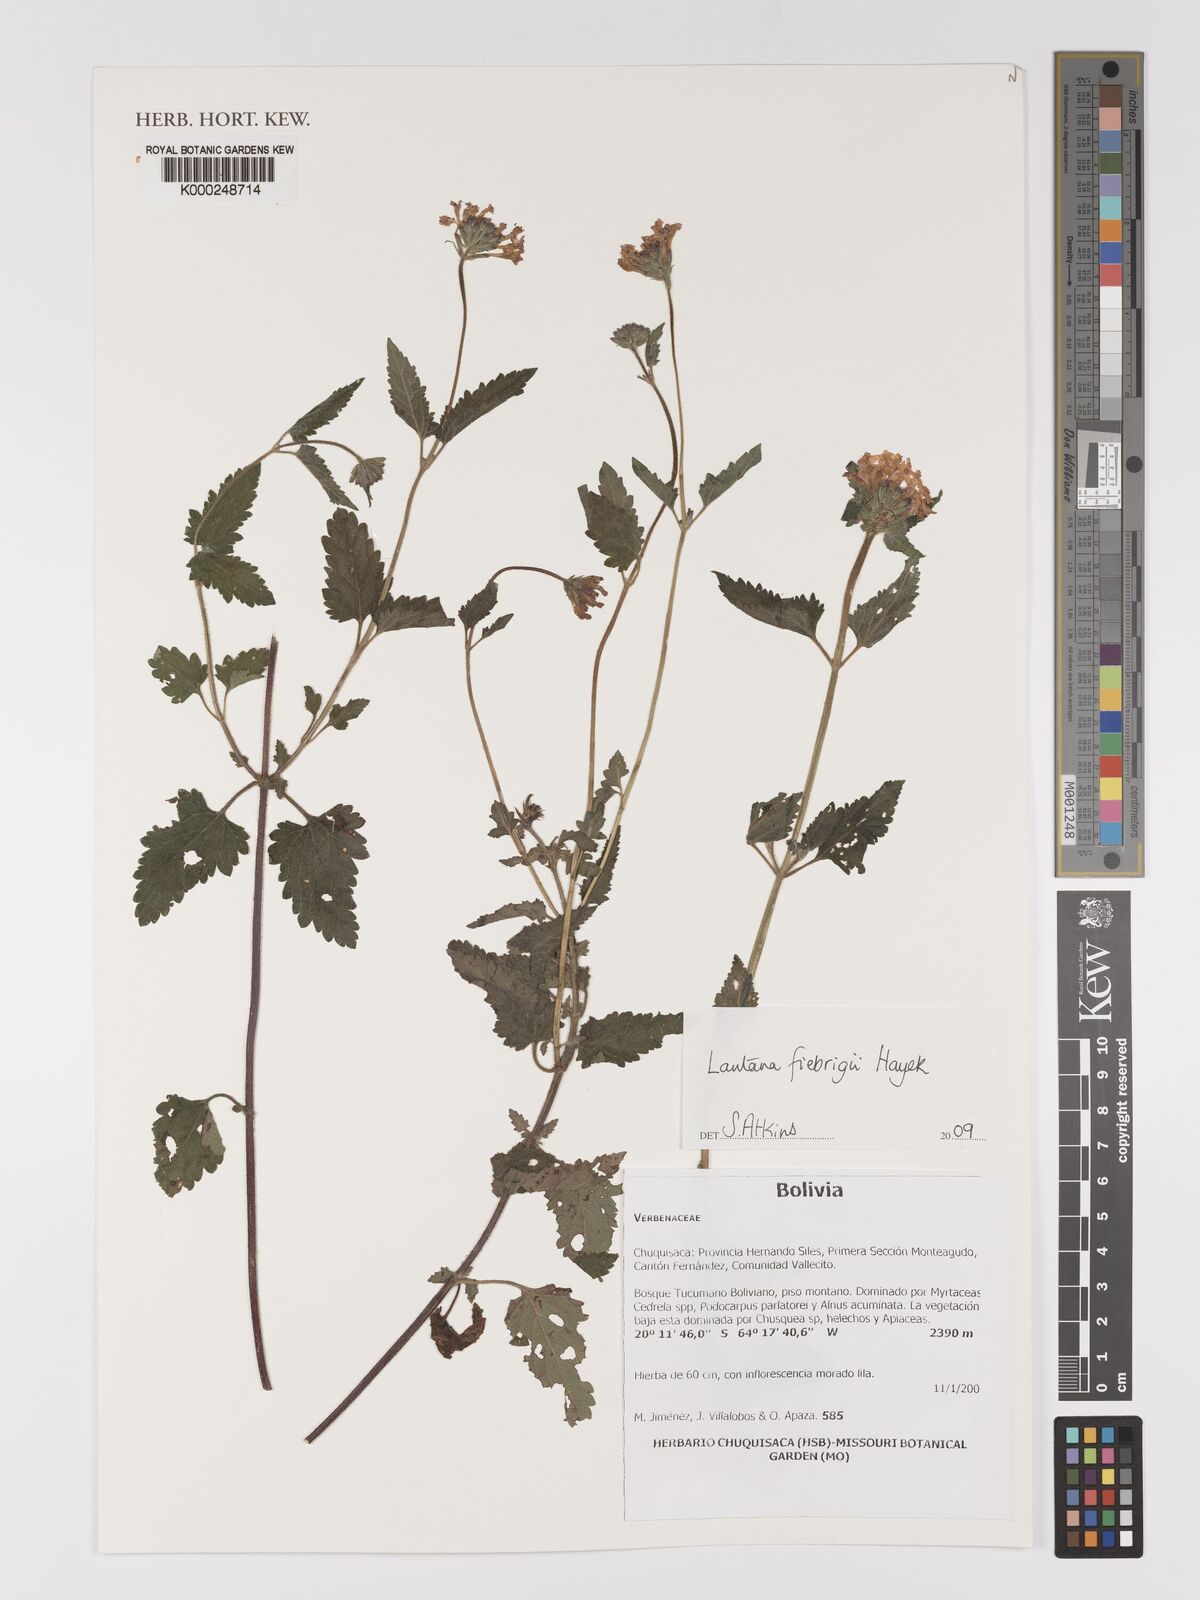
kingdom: Plantae
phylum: Tracheophyta
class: Magnoliopsida
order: Lamiales
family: Verbenaceae
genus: Lantana
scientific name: Lantana trifolia
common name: Sweet-sage
